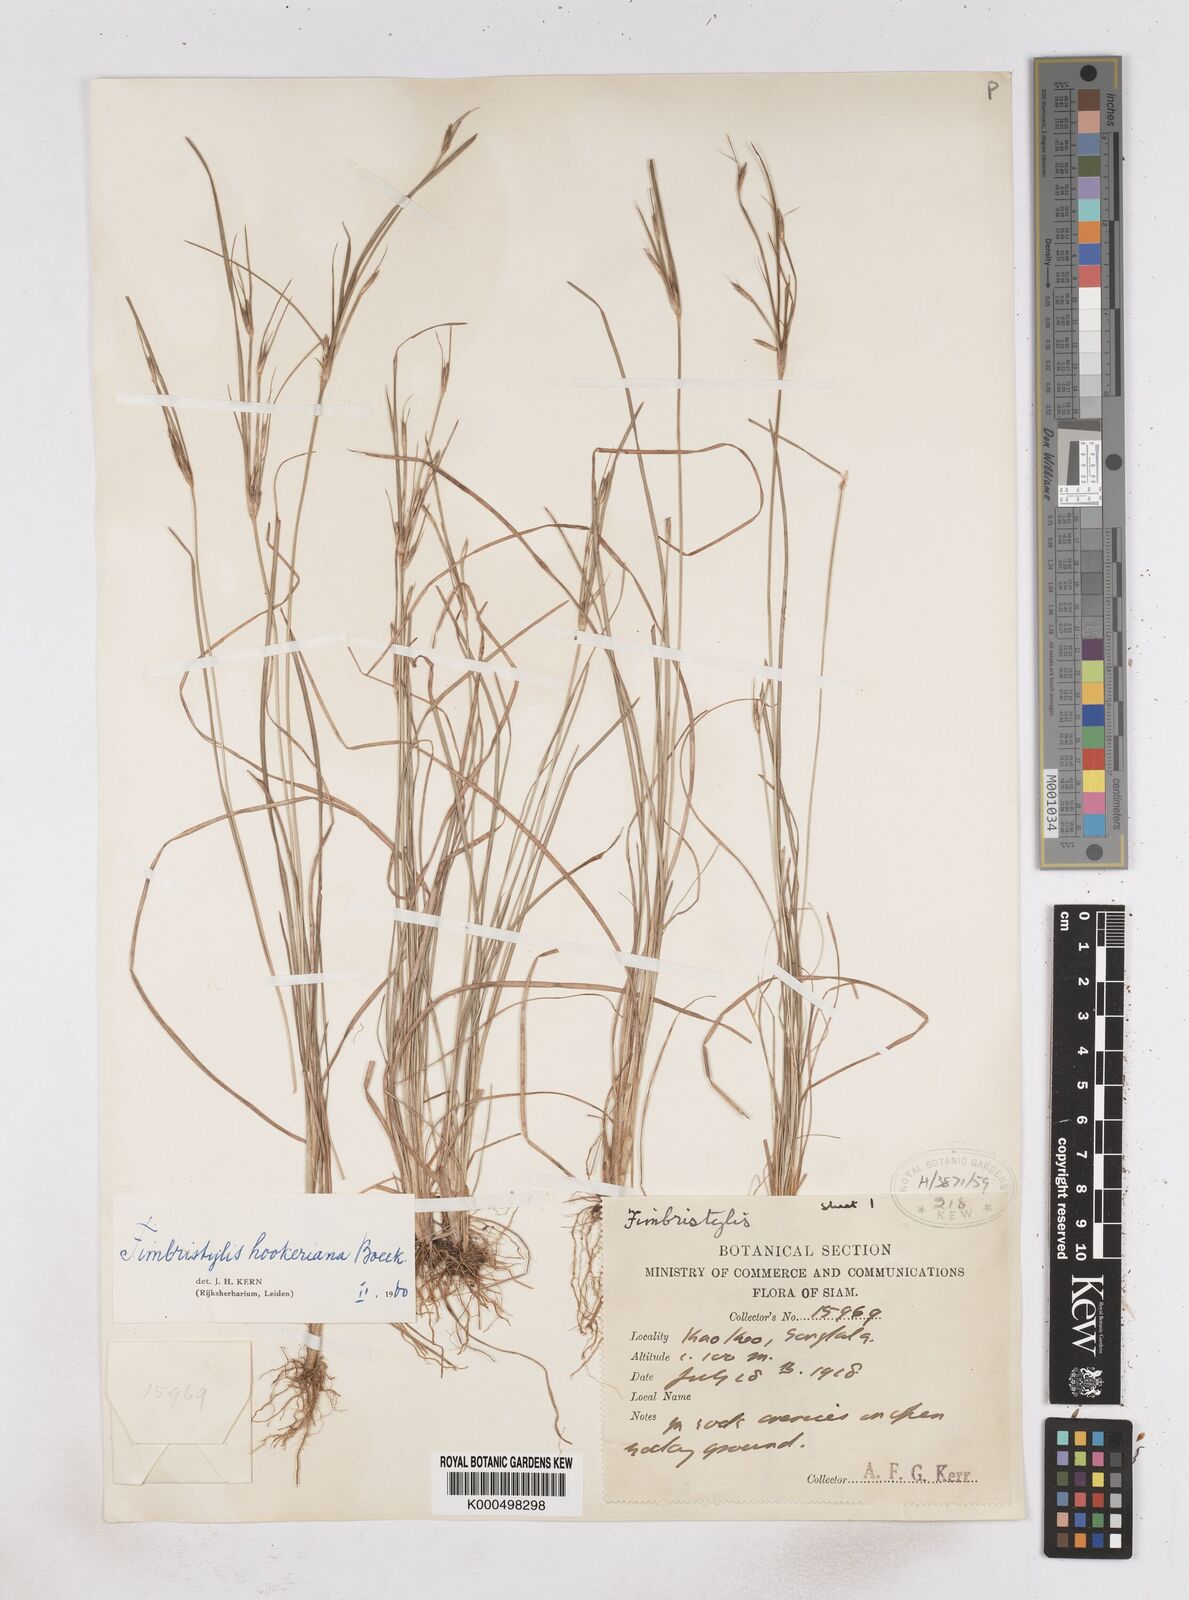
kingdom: Plantae
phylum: Tracheophyta
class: Liliopsida
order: Poales
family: Cyperaceae
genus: Fimbristylis
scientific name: Fimbristylis hookeriana
